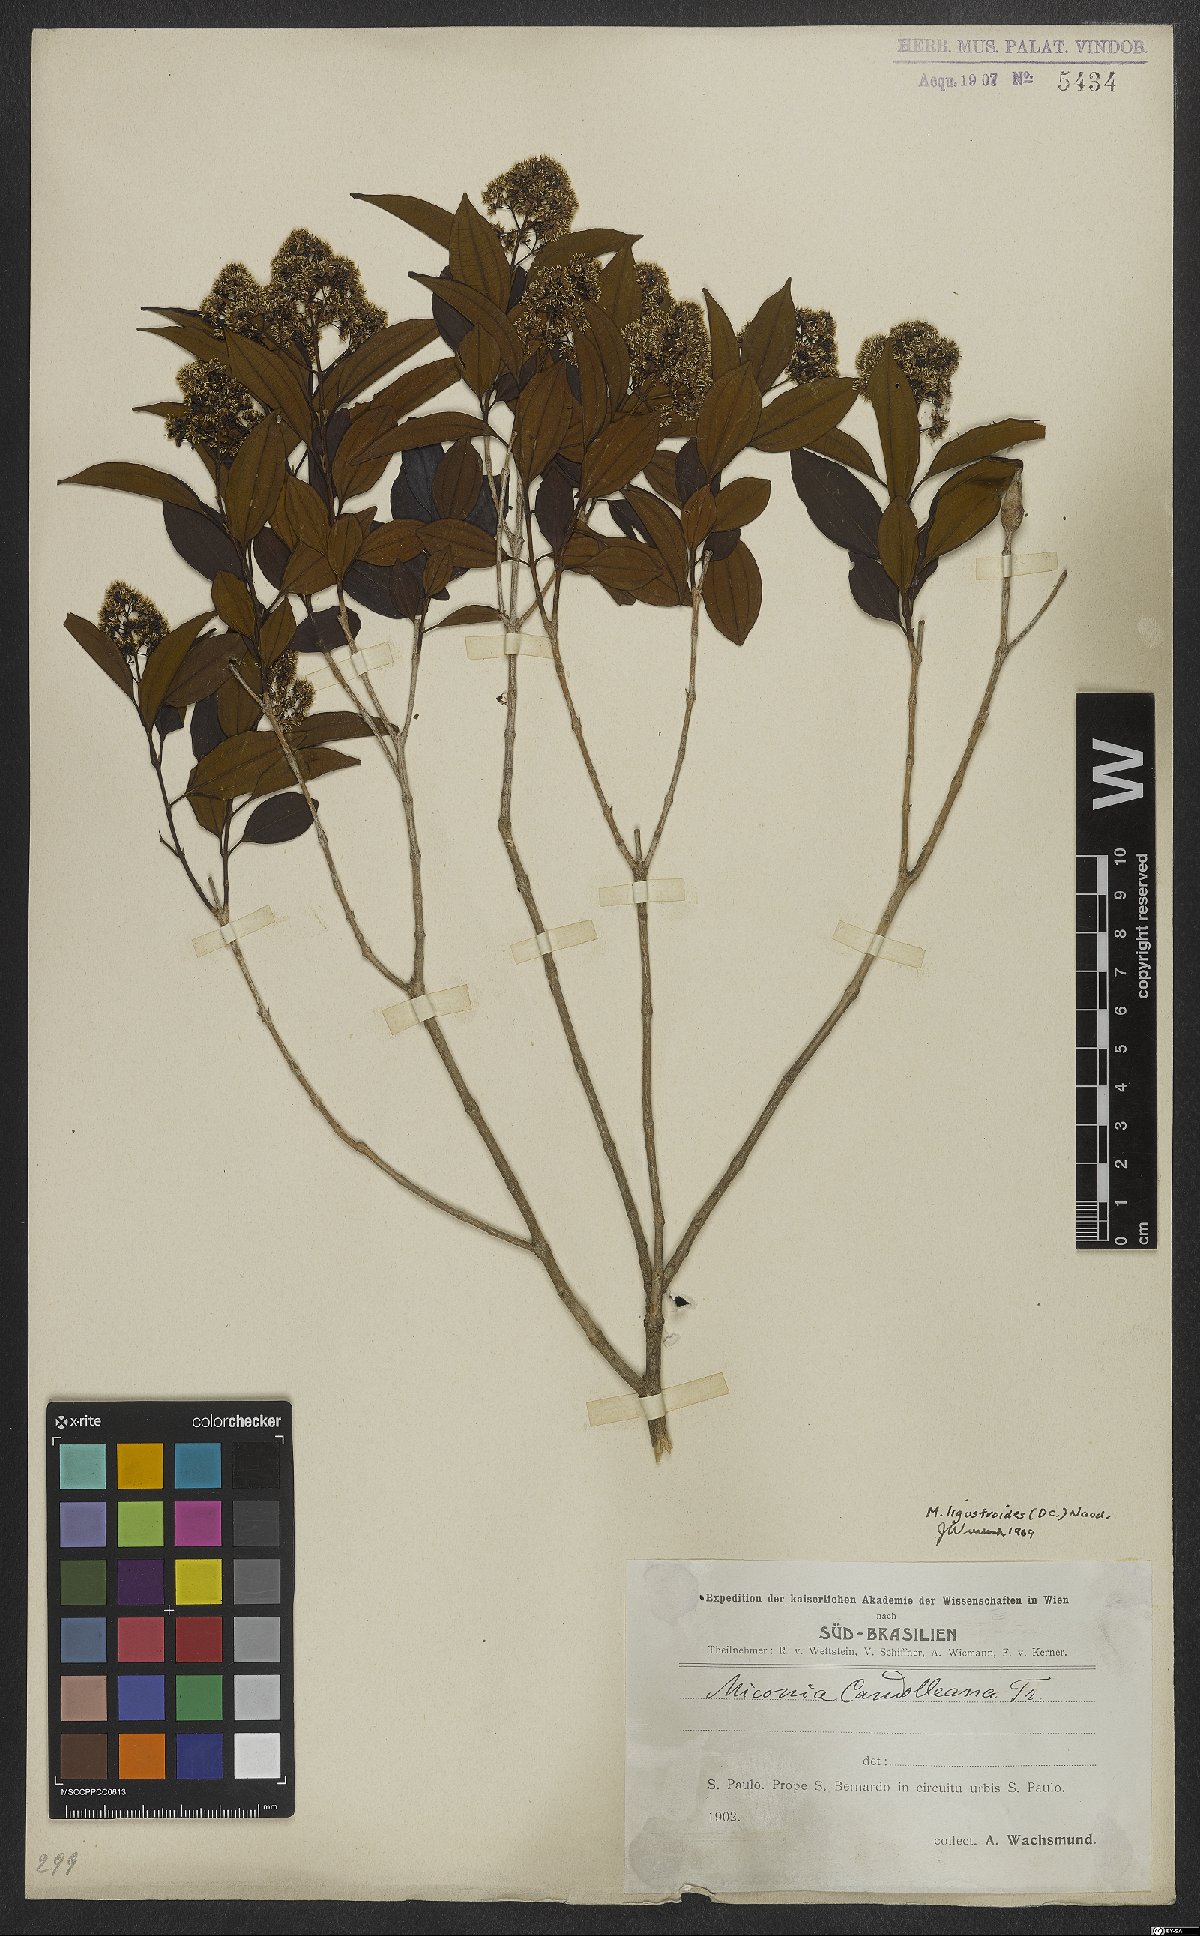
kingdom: Plantae
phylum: Tracheophyta
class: Magnoliopsida
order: Myrtales
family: Melastomataceae
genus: Miconia
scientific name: Miconia ligustroides
